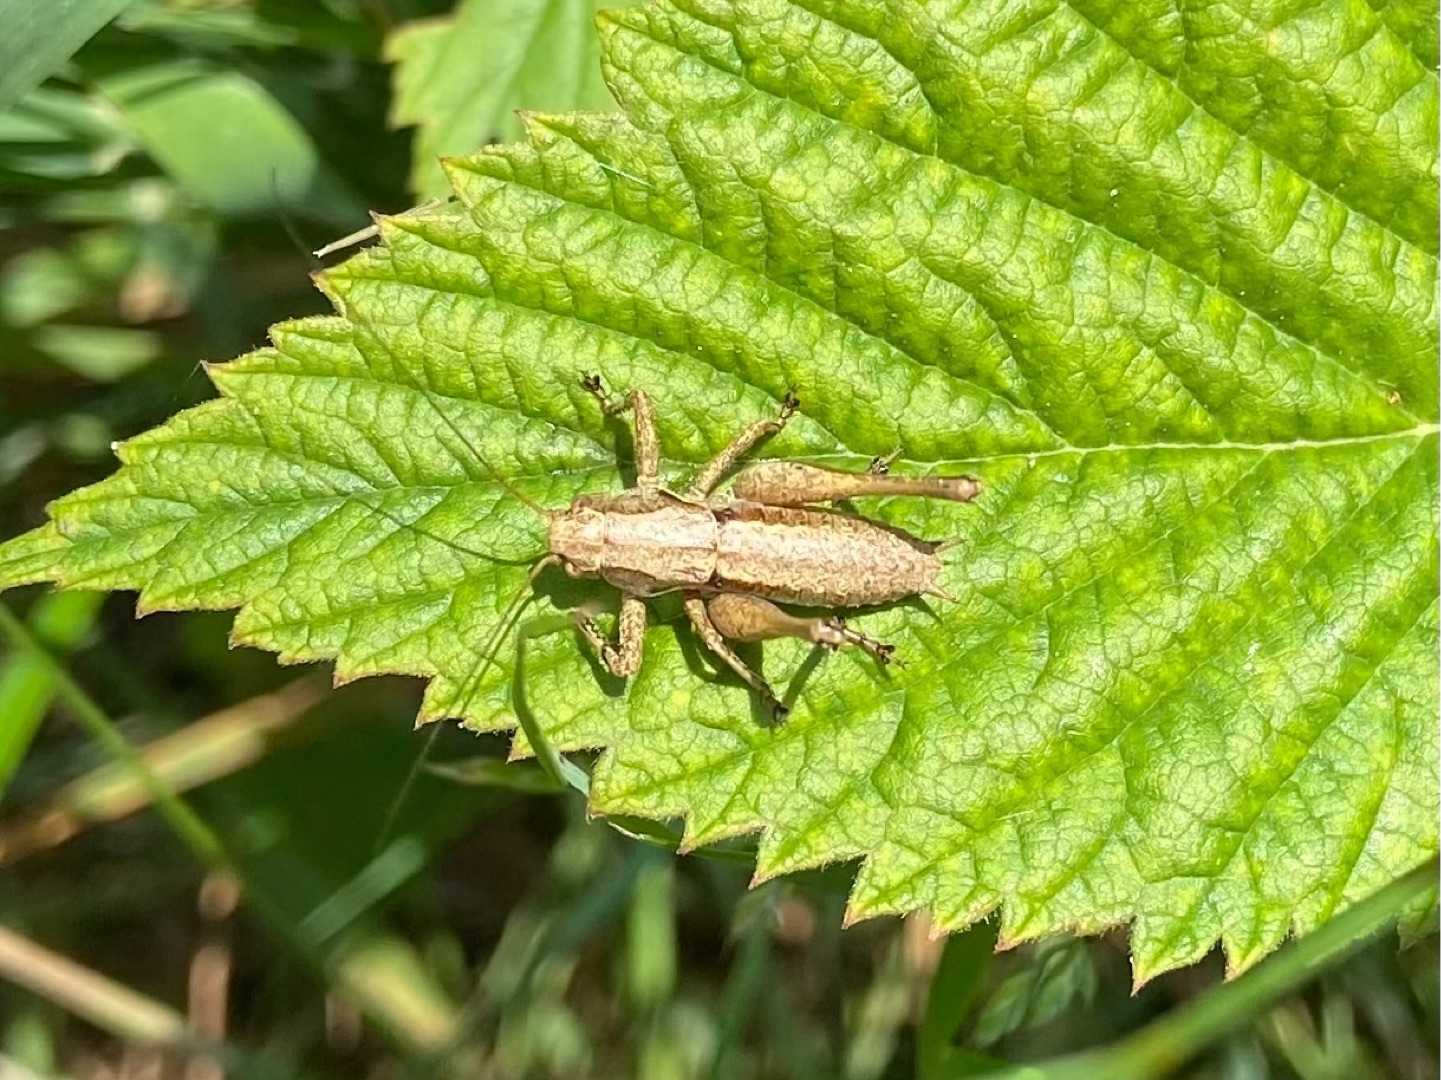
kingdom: Animalia
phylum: Arthropoda
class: Insecta
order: Orthoptera
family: Tettigoniidae
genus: Pholidoptera
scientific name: Pholidoptera griseoaptera
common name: Buskgræshoppe
